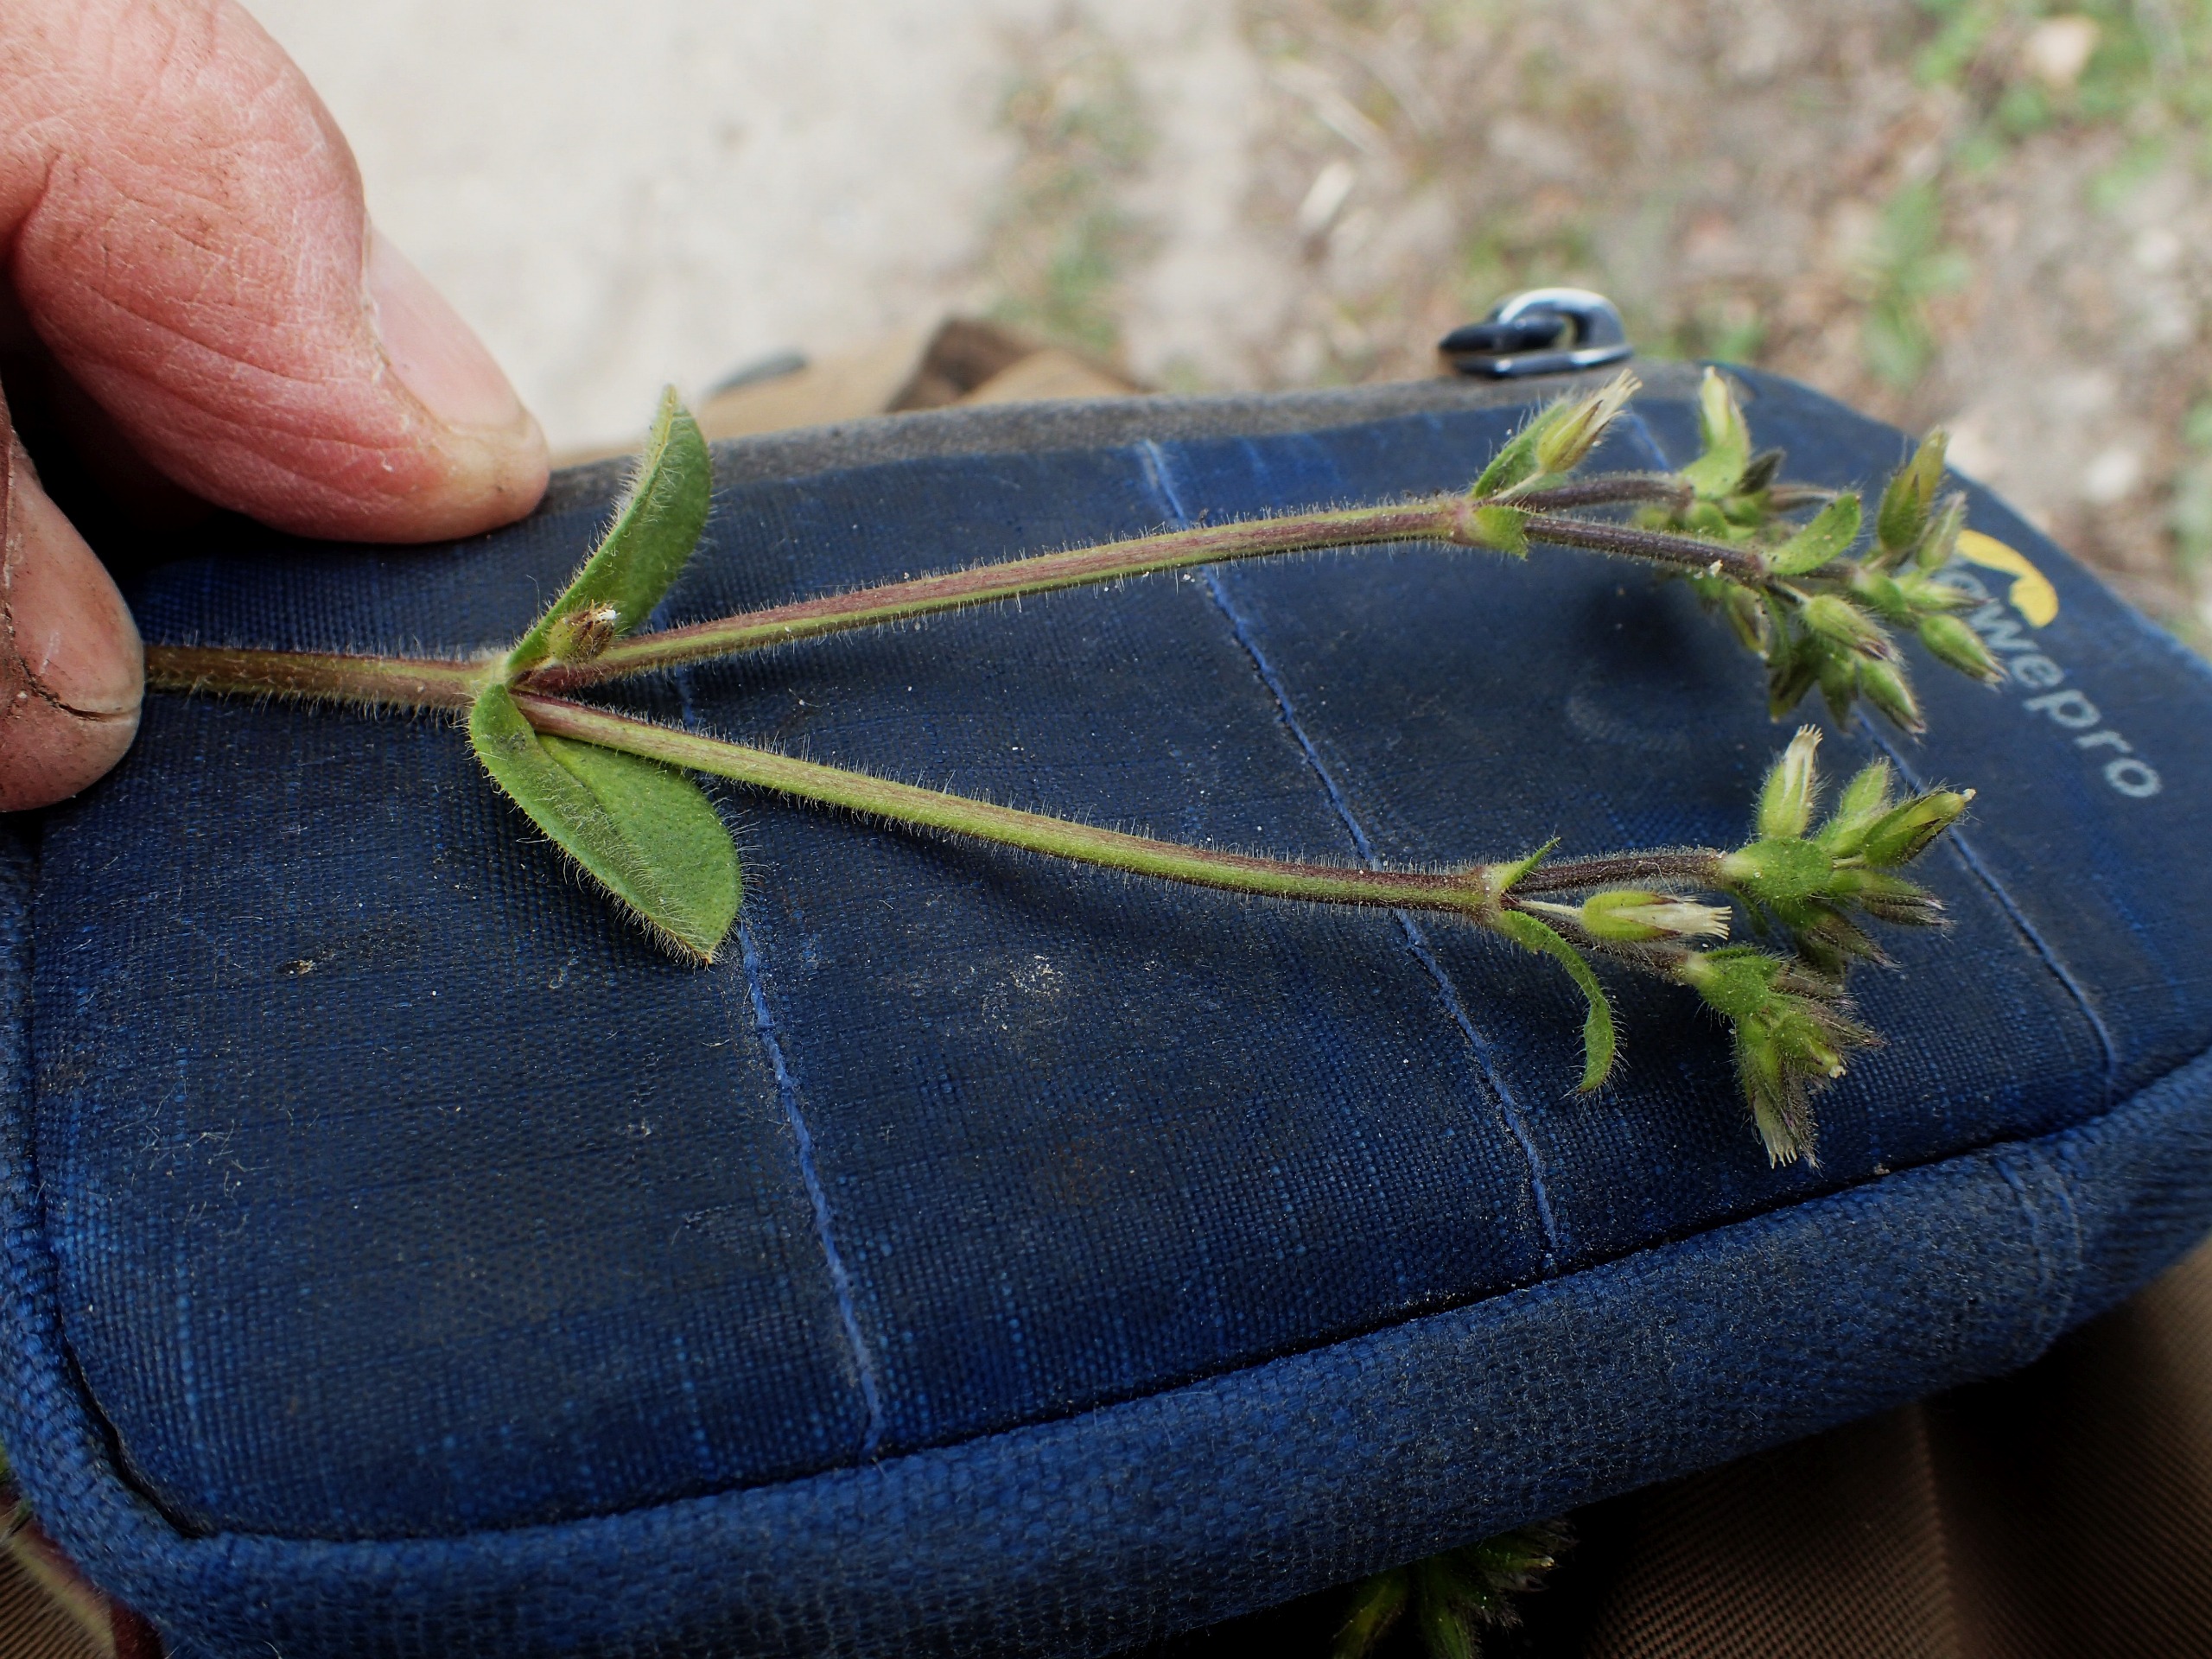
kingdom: Plantae
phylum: Tracheophyta
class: Magnoliopsida
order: Caryophyllales
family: Caryophyllaceae
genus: Cerastium
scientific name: Cerastium glomeratum
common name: Opret hønsetarm
